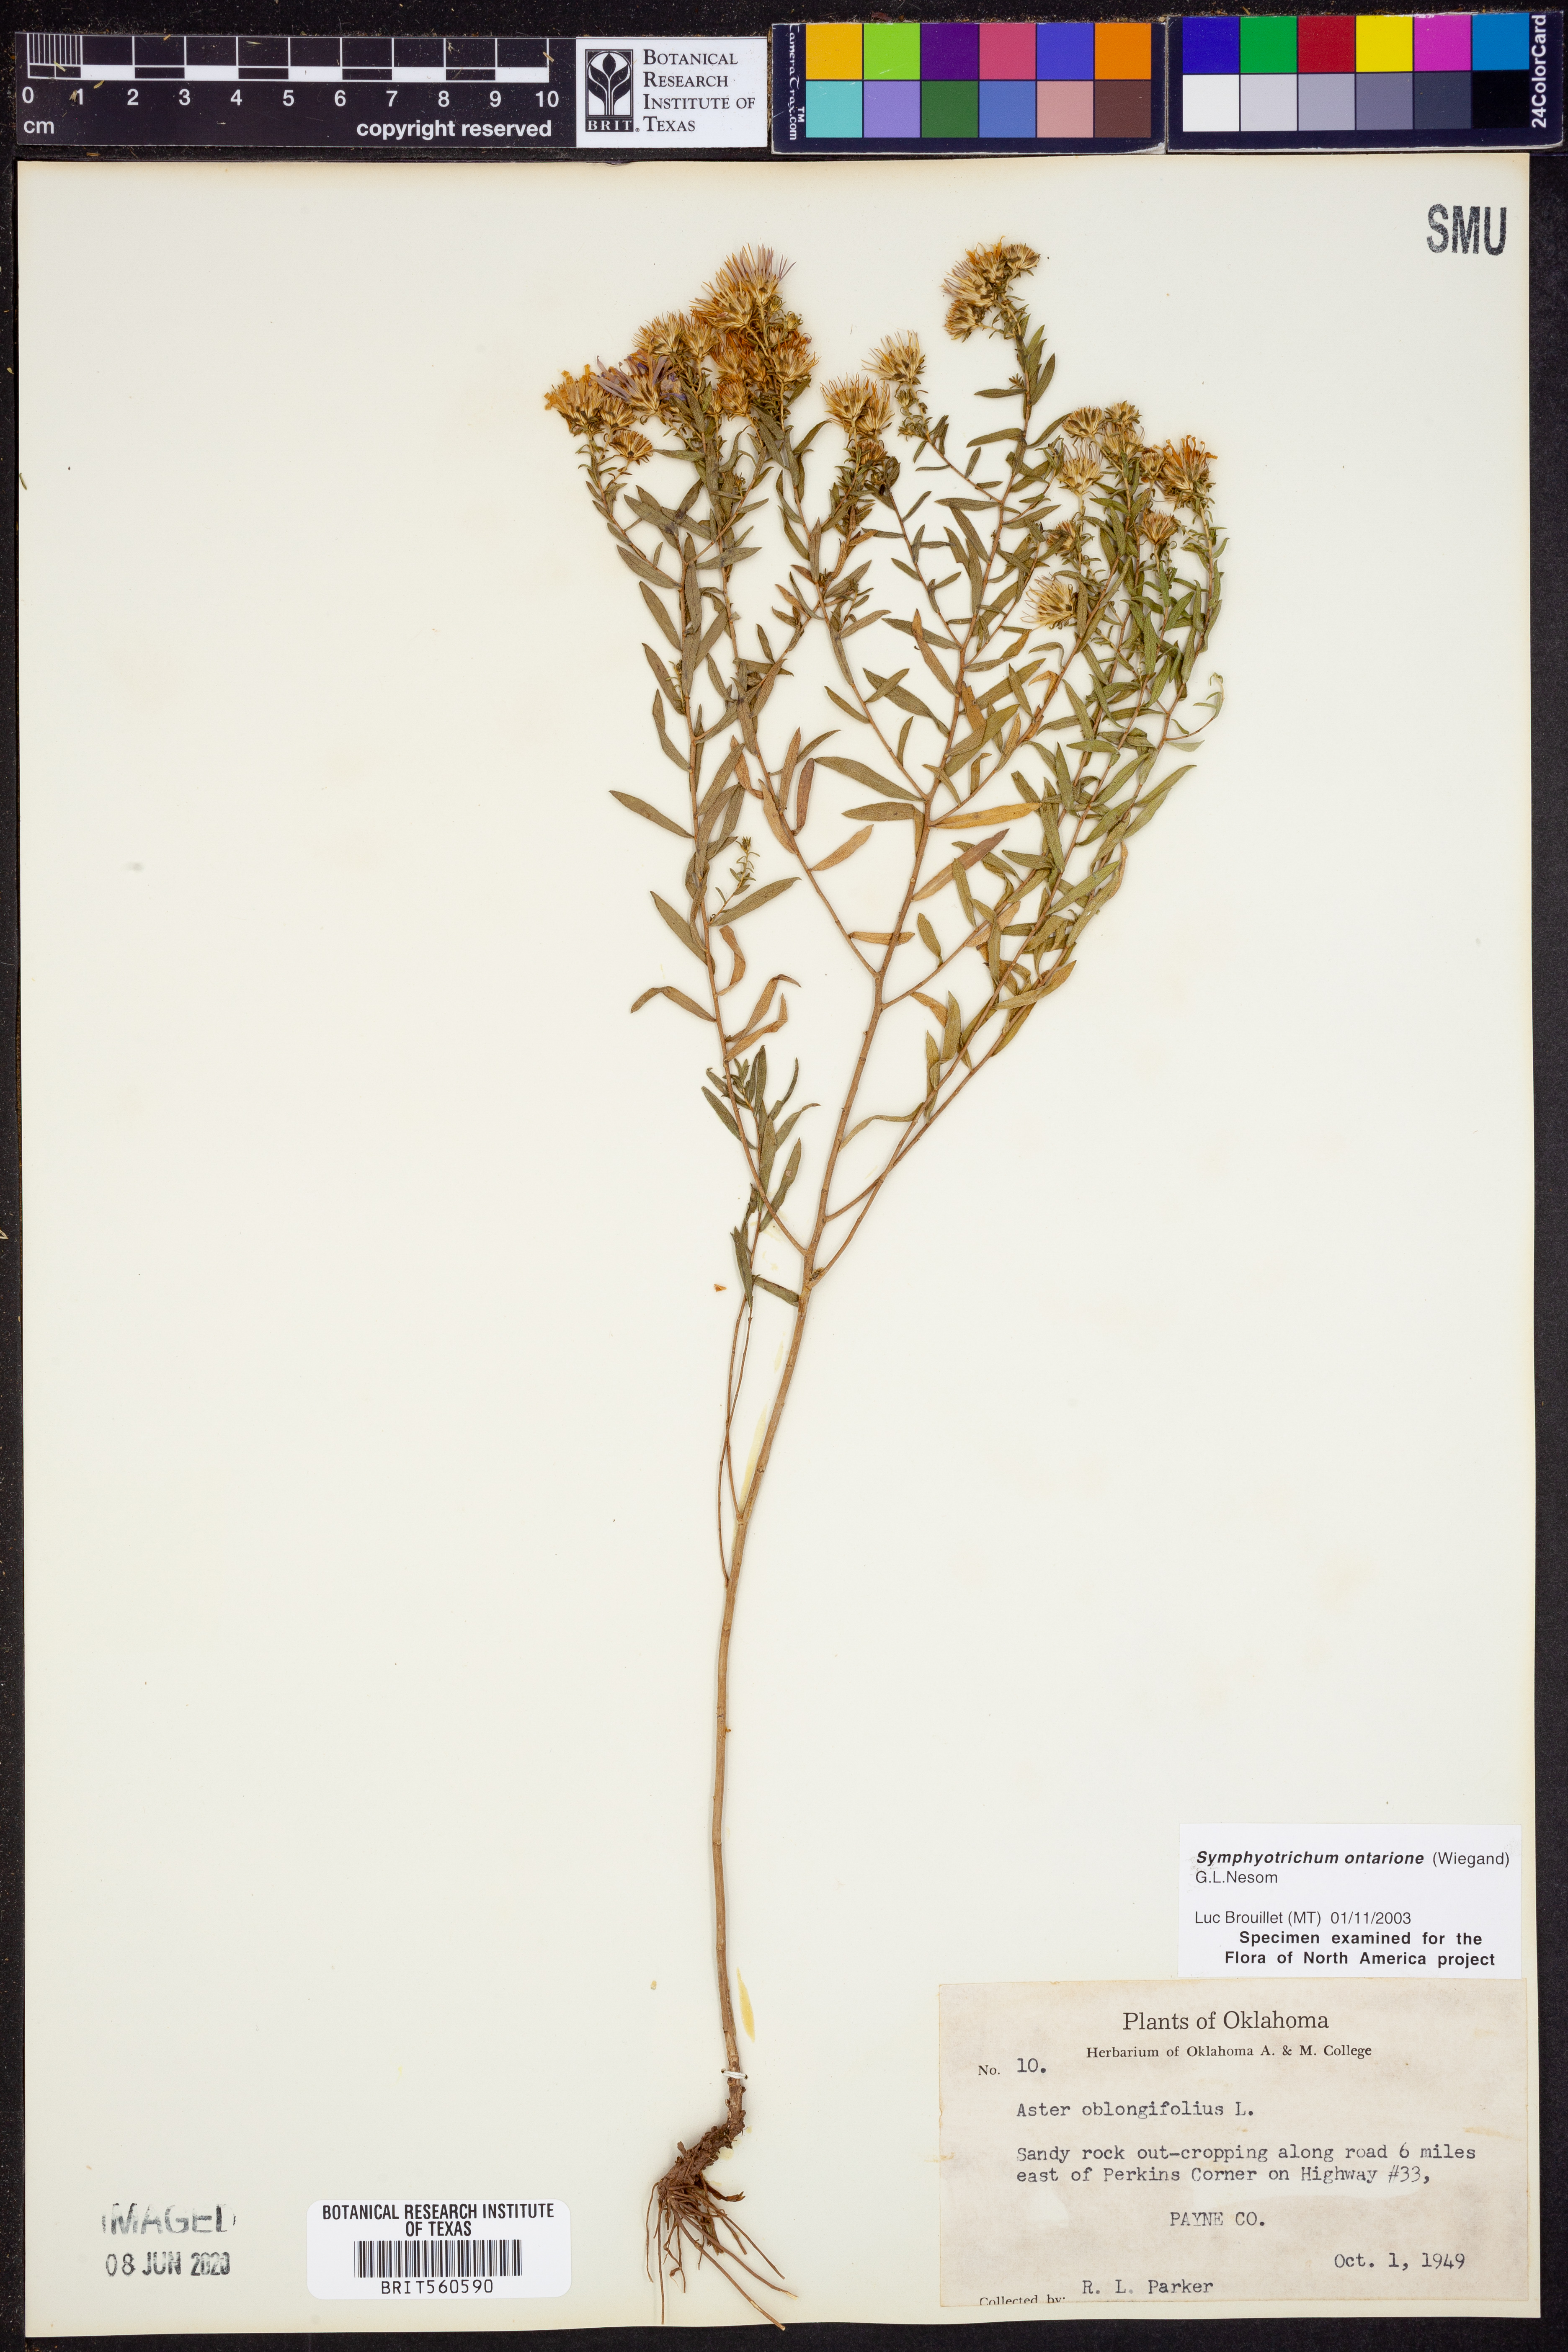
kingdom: Plantae
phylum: Tracheophyta
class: Magnoliopsida
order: Asterales
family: Asteraceae
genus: Symphyotrichum
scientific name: Symphyotrichum ontarionis
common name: Bottomland aster
